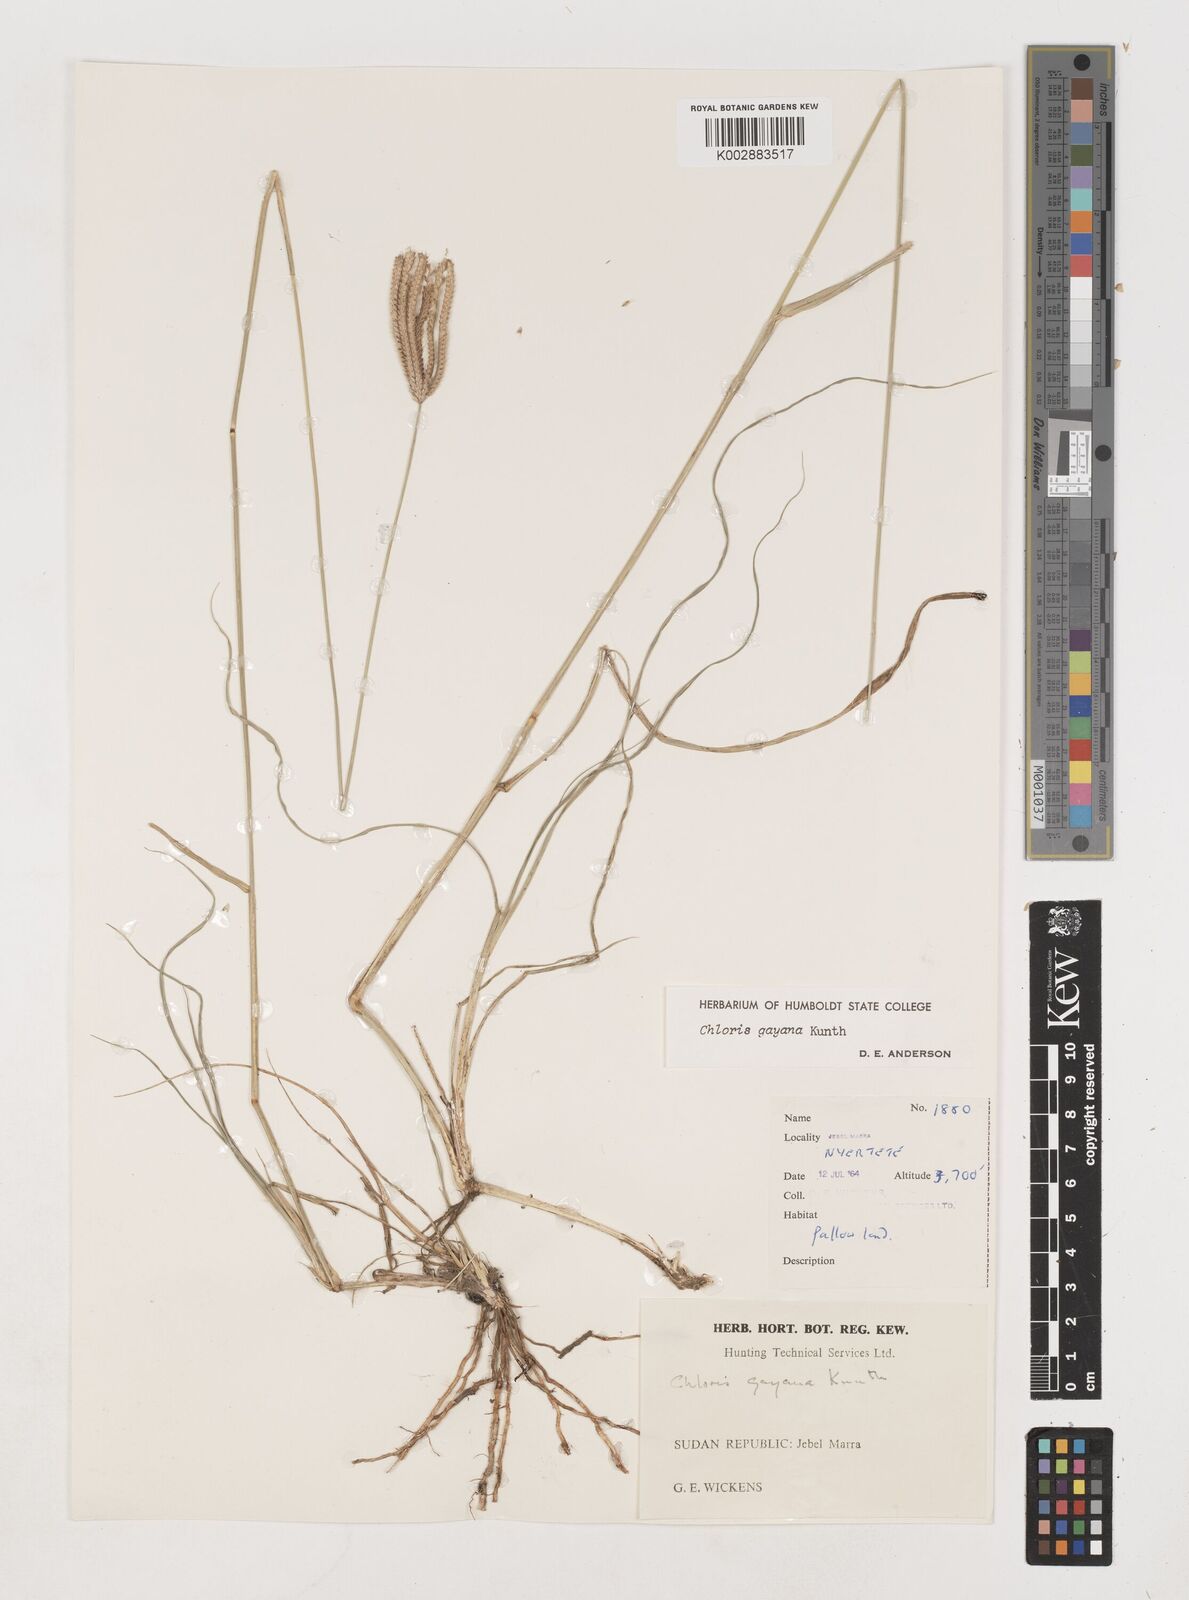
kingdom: Plantae
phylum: Tracheophyta
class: Liliopsida
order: Poales
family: Poaceae
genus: Chloris
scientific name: Chloris gayana
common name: Rhodes grass
